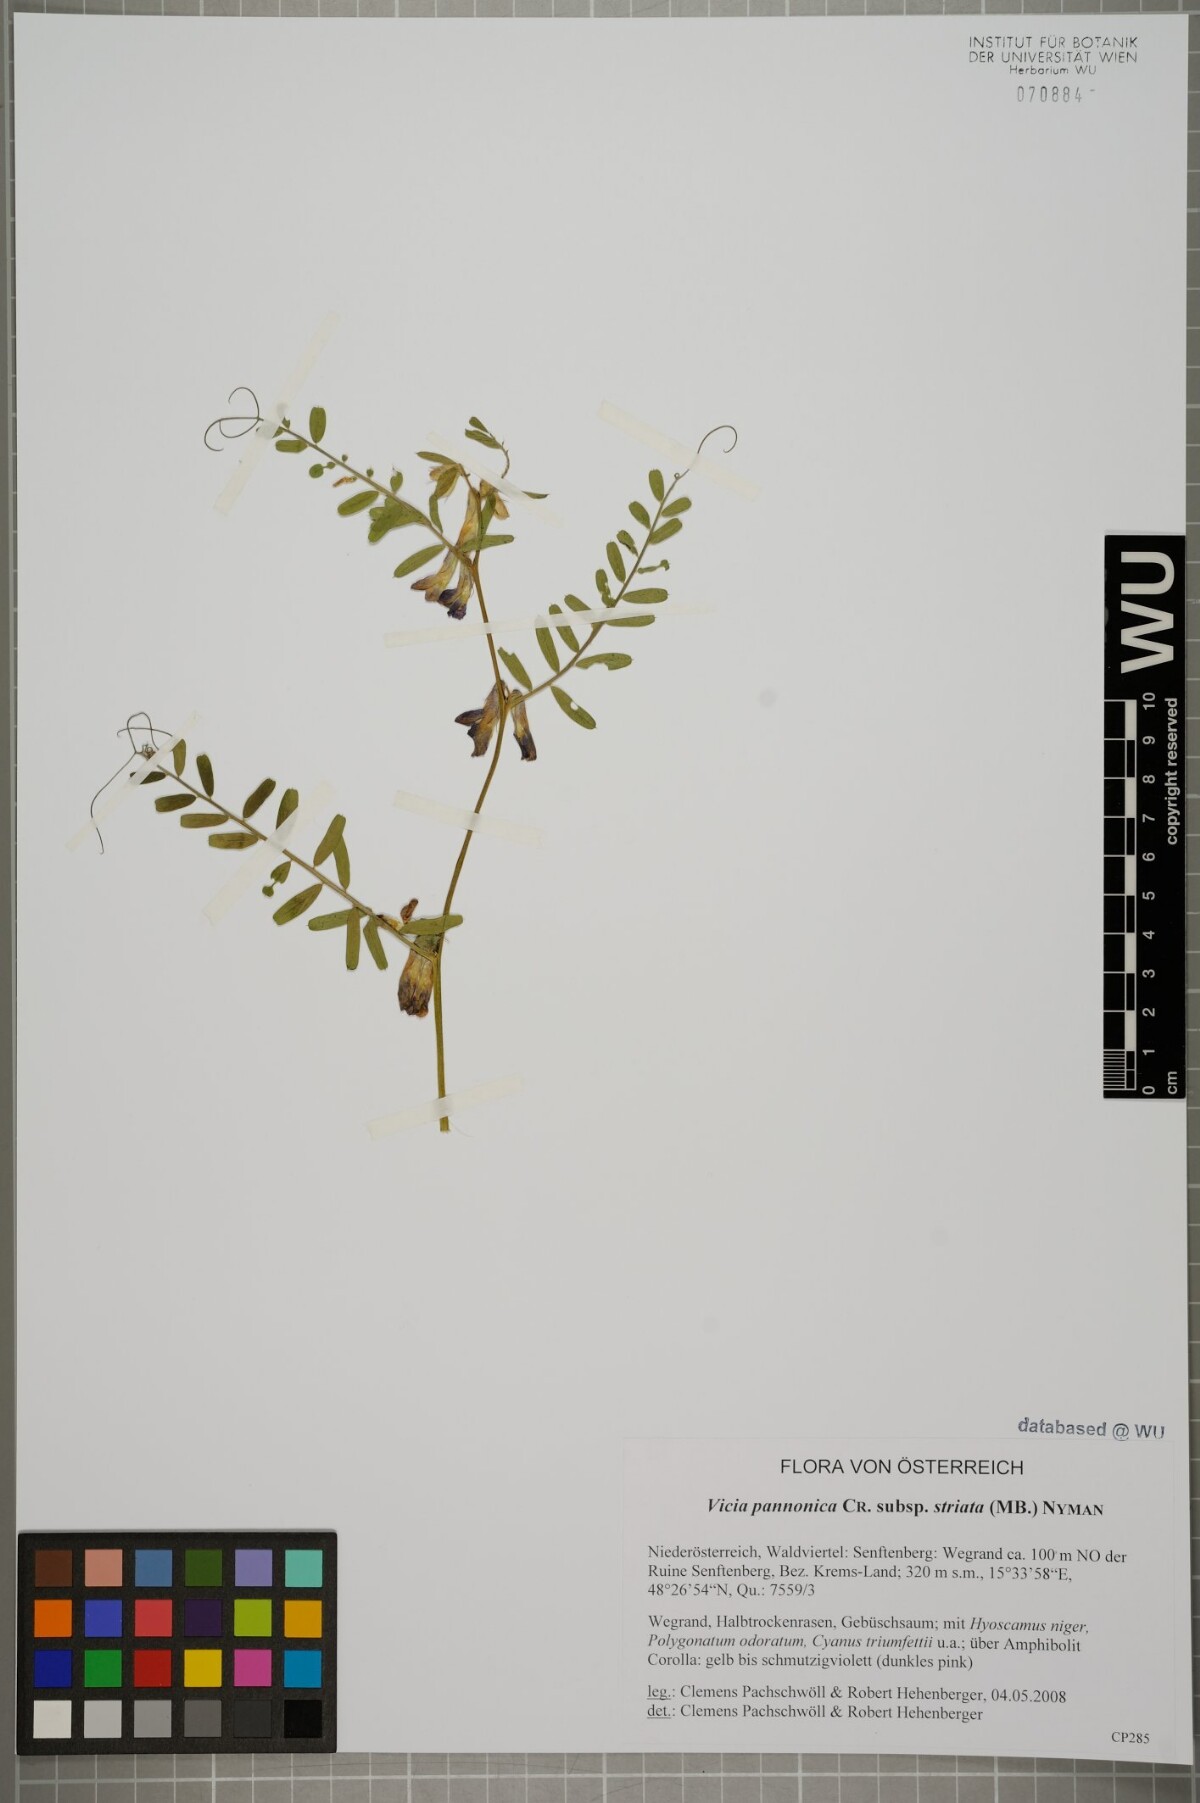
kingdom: Plantae
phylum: Tracheophyta
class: Magnoliopsida
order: Fabales
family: Fabaceae
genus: Vicia
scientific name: Vicia pannonica
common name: Hungarian vetch
